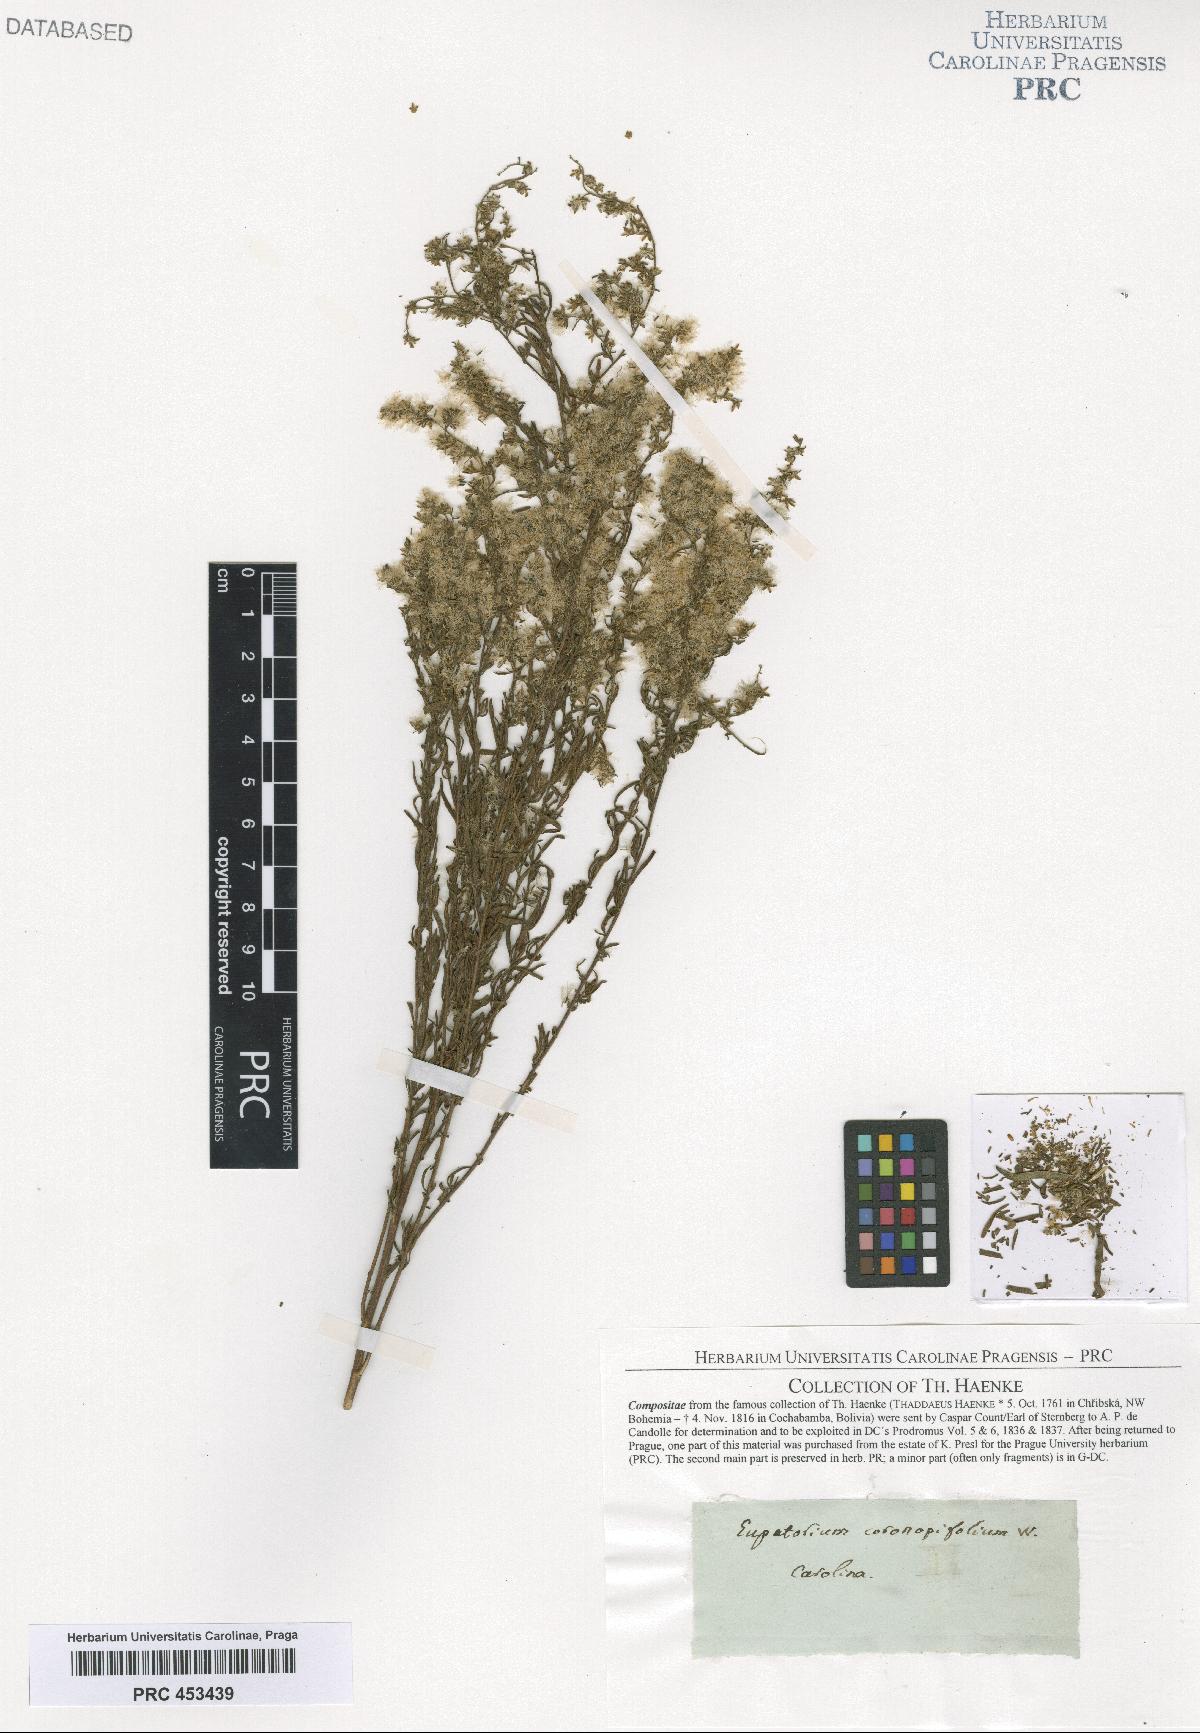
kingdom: Plantae
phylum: Tracheophyta
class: Magnoliopsida
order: Asterales
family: Asteraceae
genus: Eupatorium
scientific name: Eupatorium
